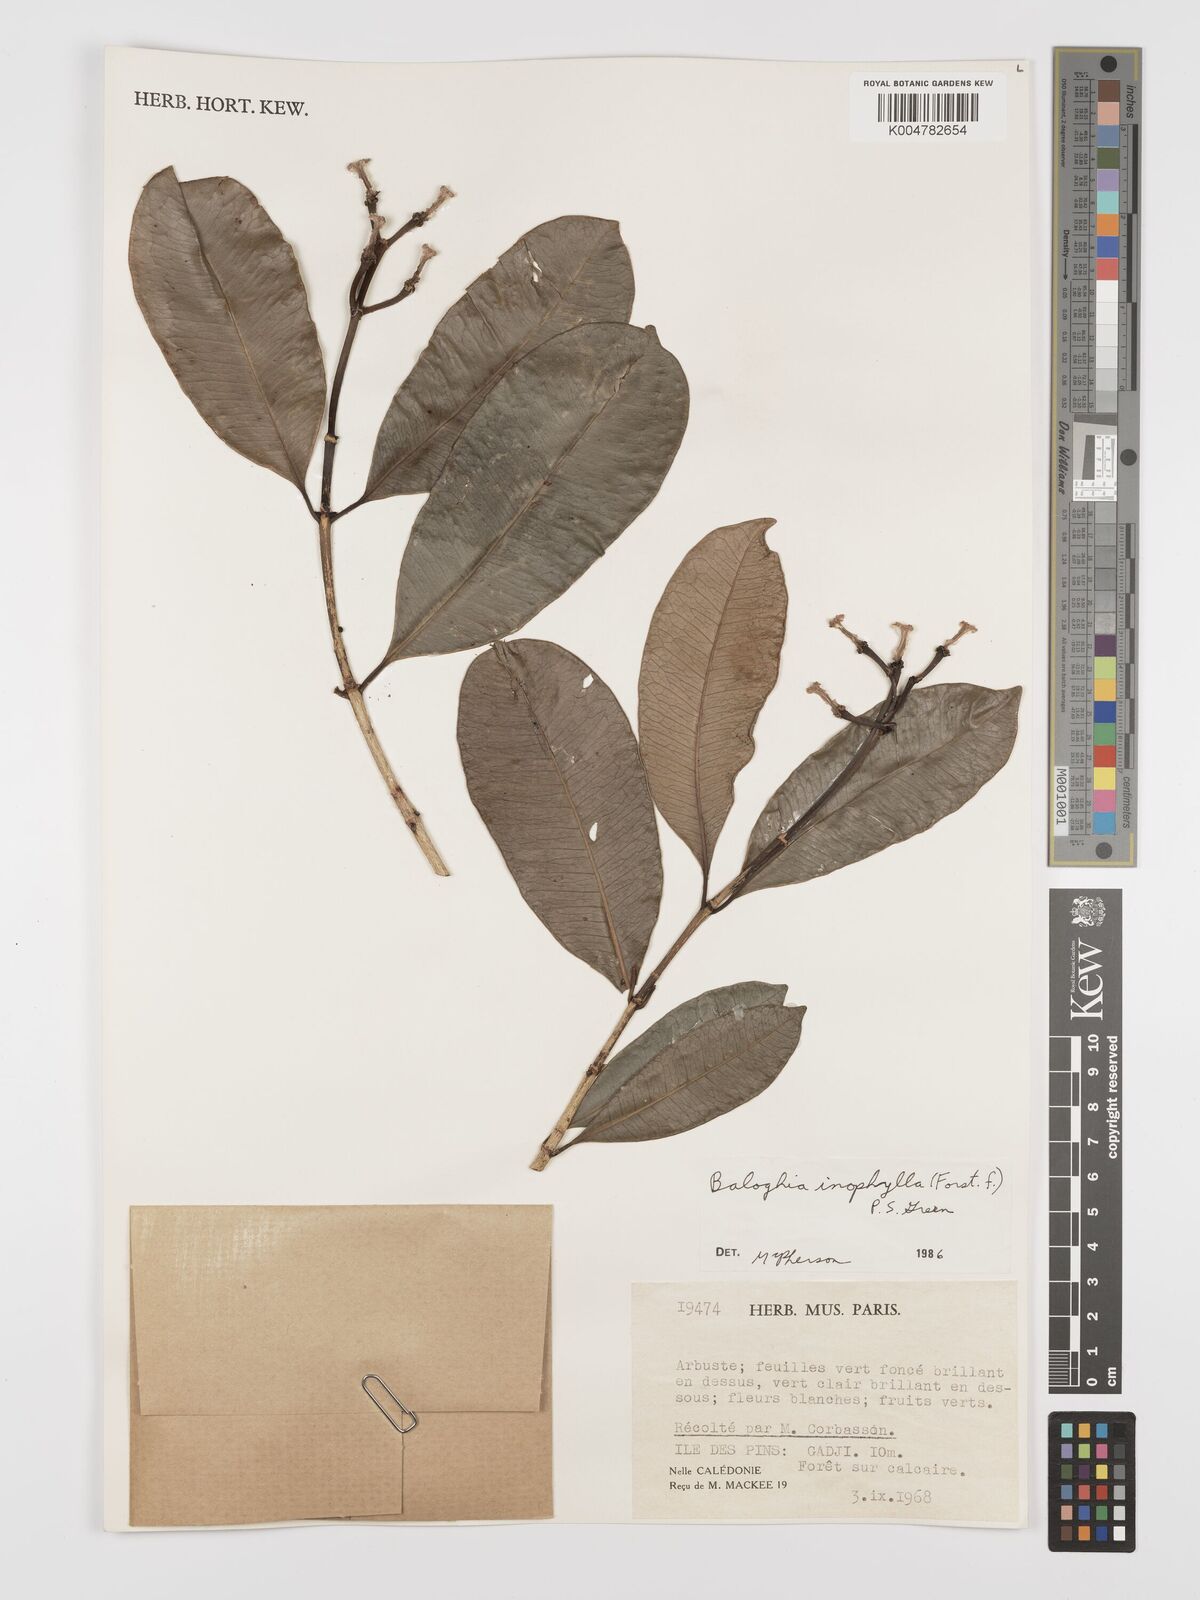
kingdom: Plantae
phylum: Tracheophyta
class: Magnoliopsida
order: Malpighiales
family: Euphorbiaceae
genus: Baloghia
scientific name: Baloghia inophylla
